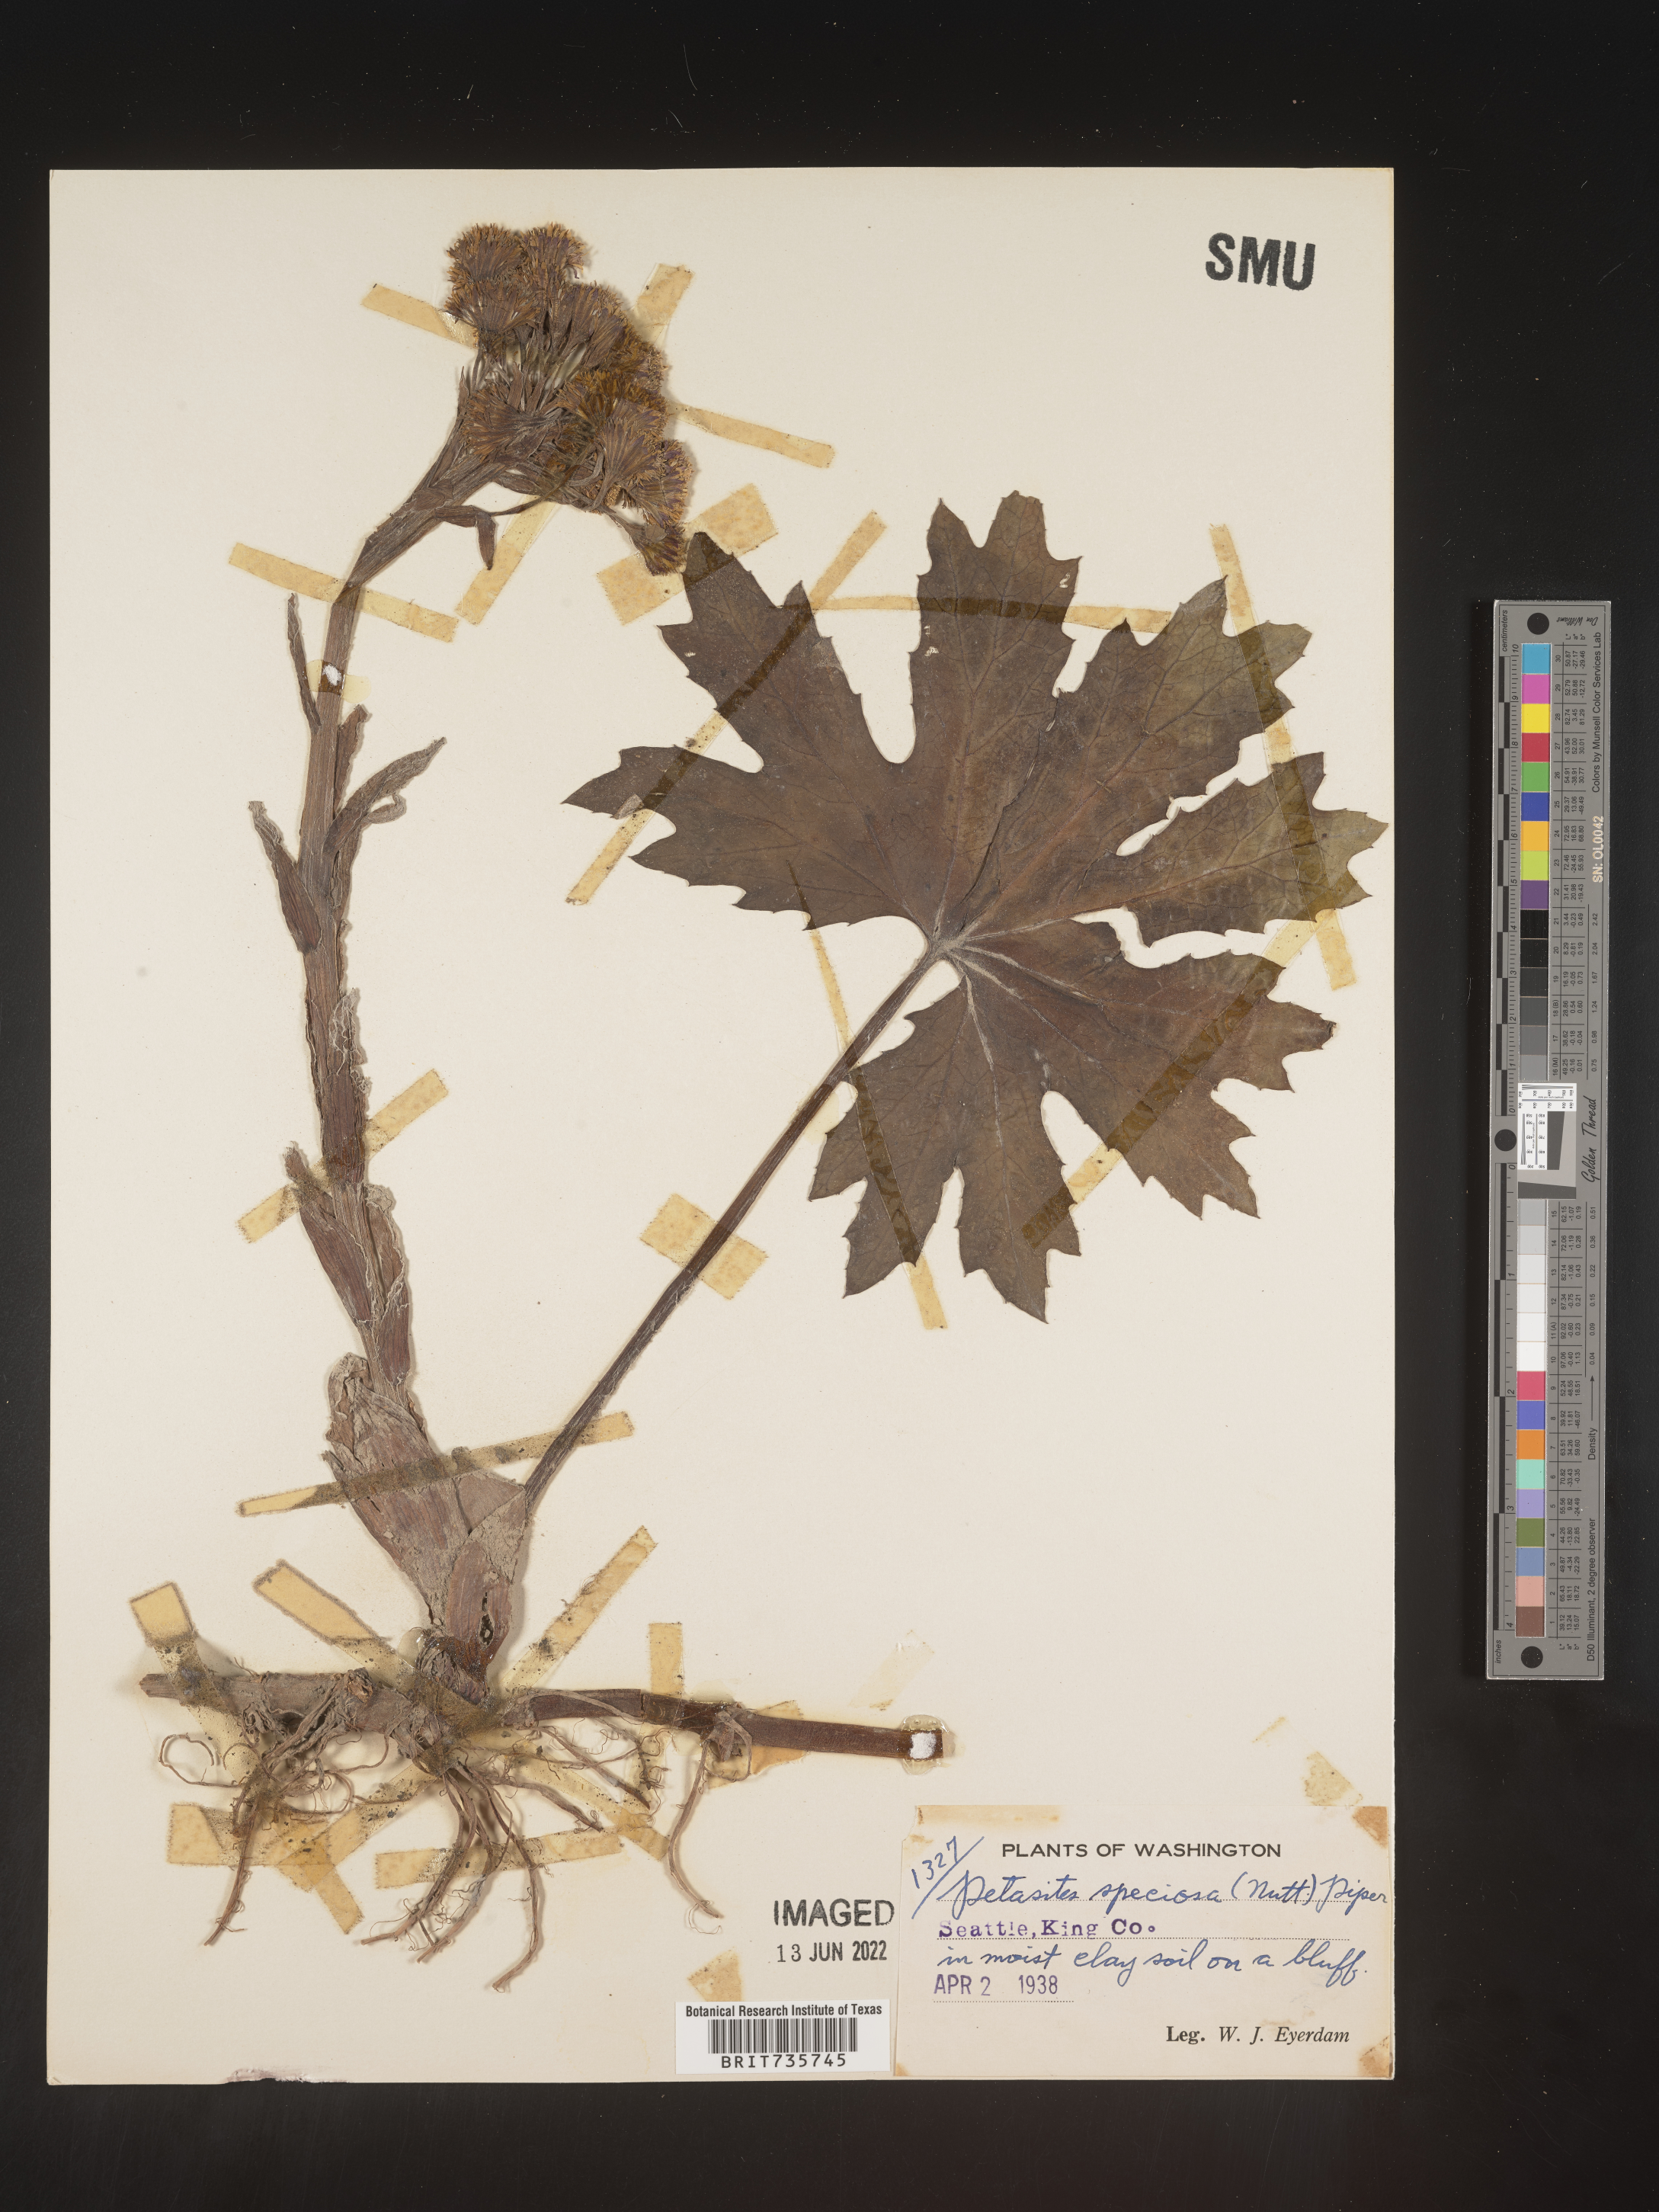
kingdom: Plantae
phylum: Tracheophyta
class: Magnoliopsida
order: Asterales
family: Asteraceae
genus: Petasites
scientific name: Petasites frigidus
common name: Arctic butterbur
